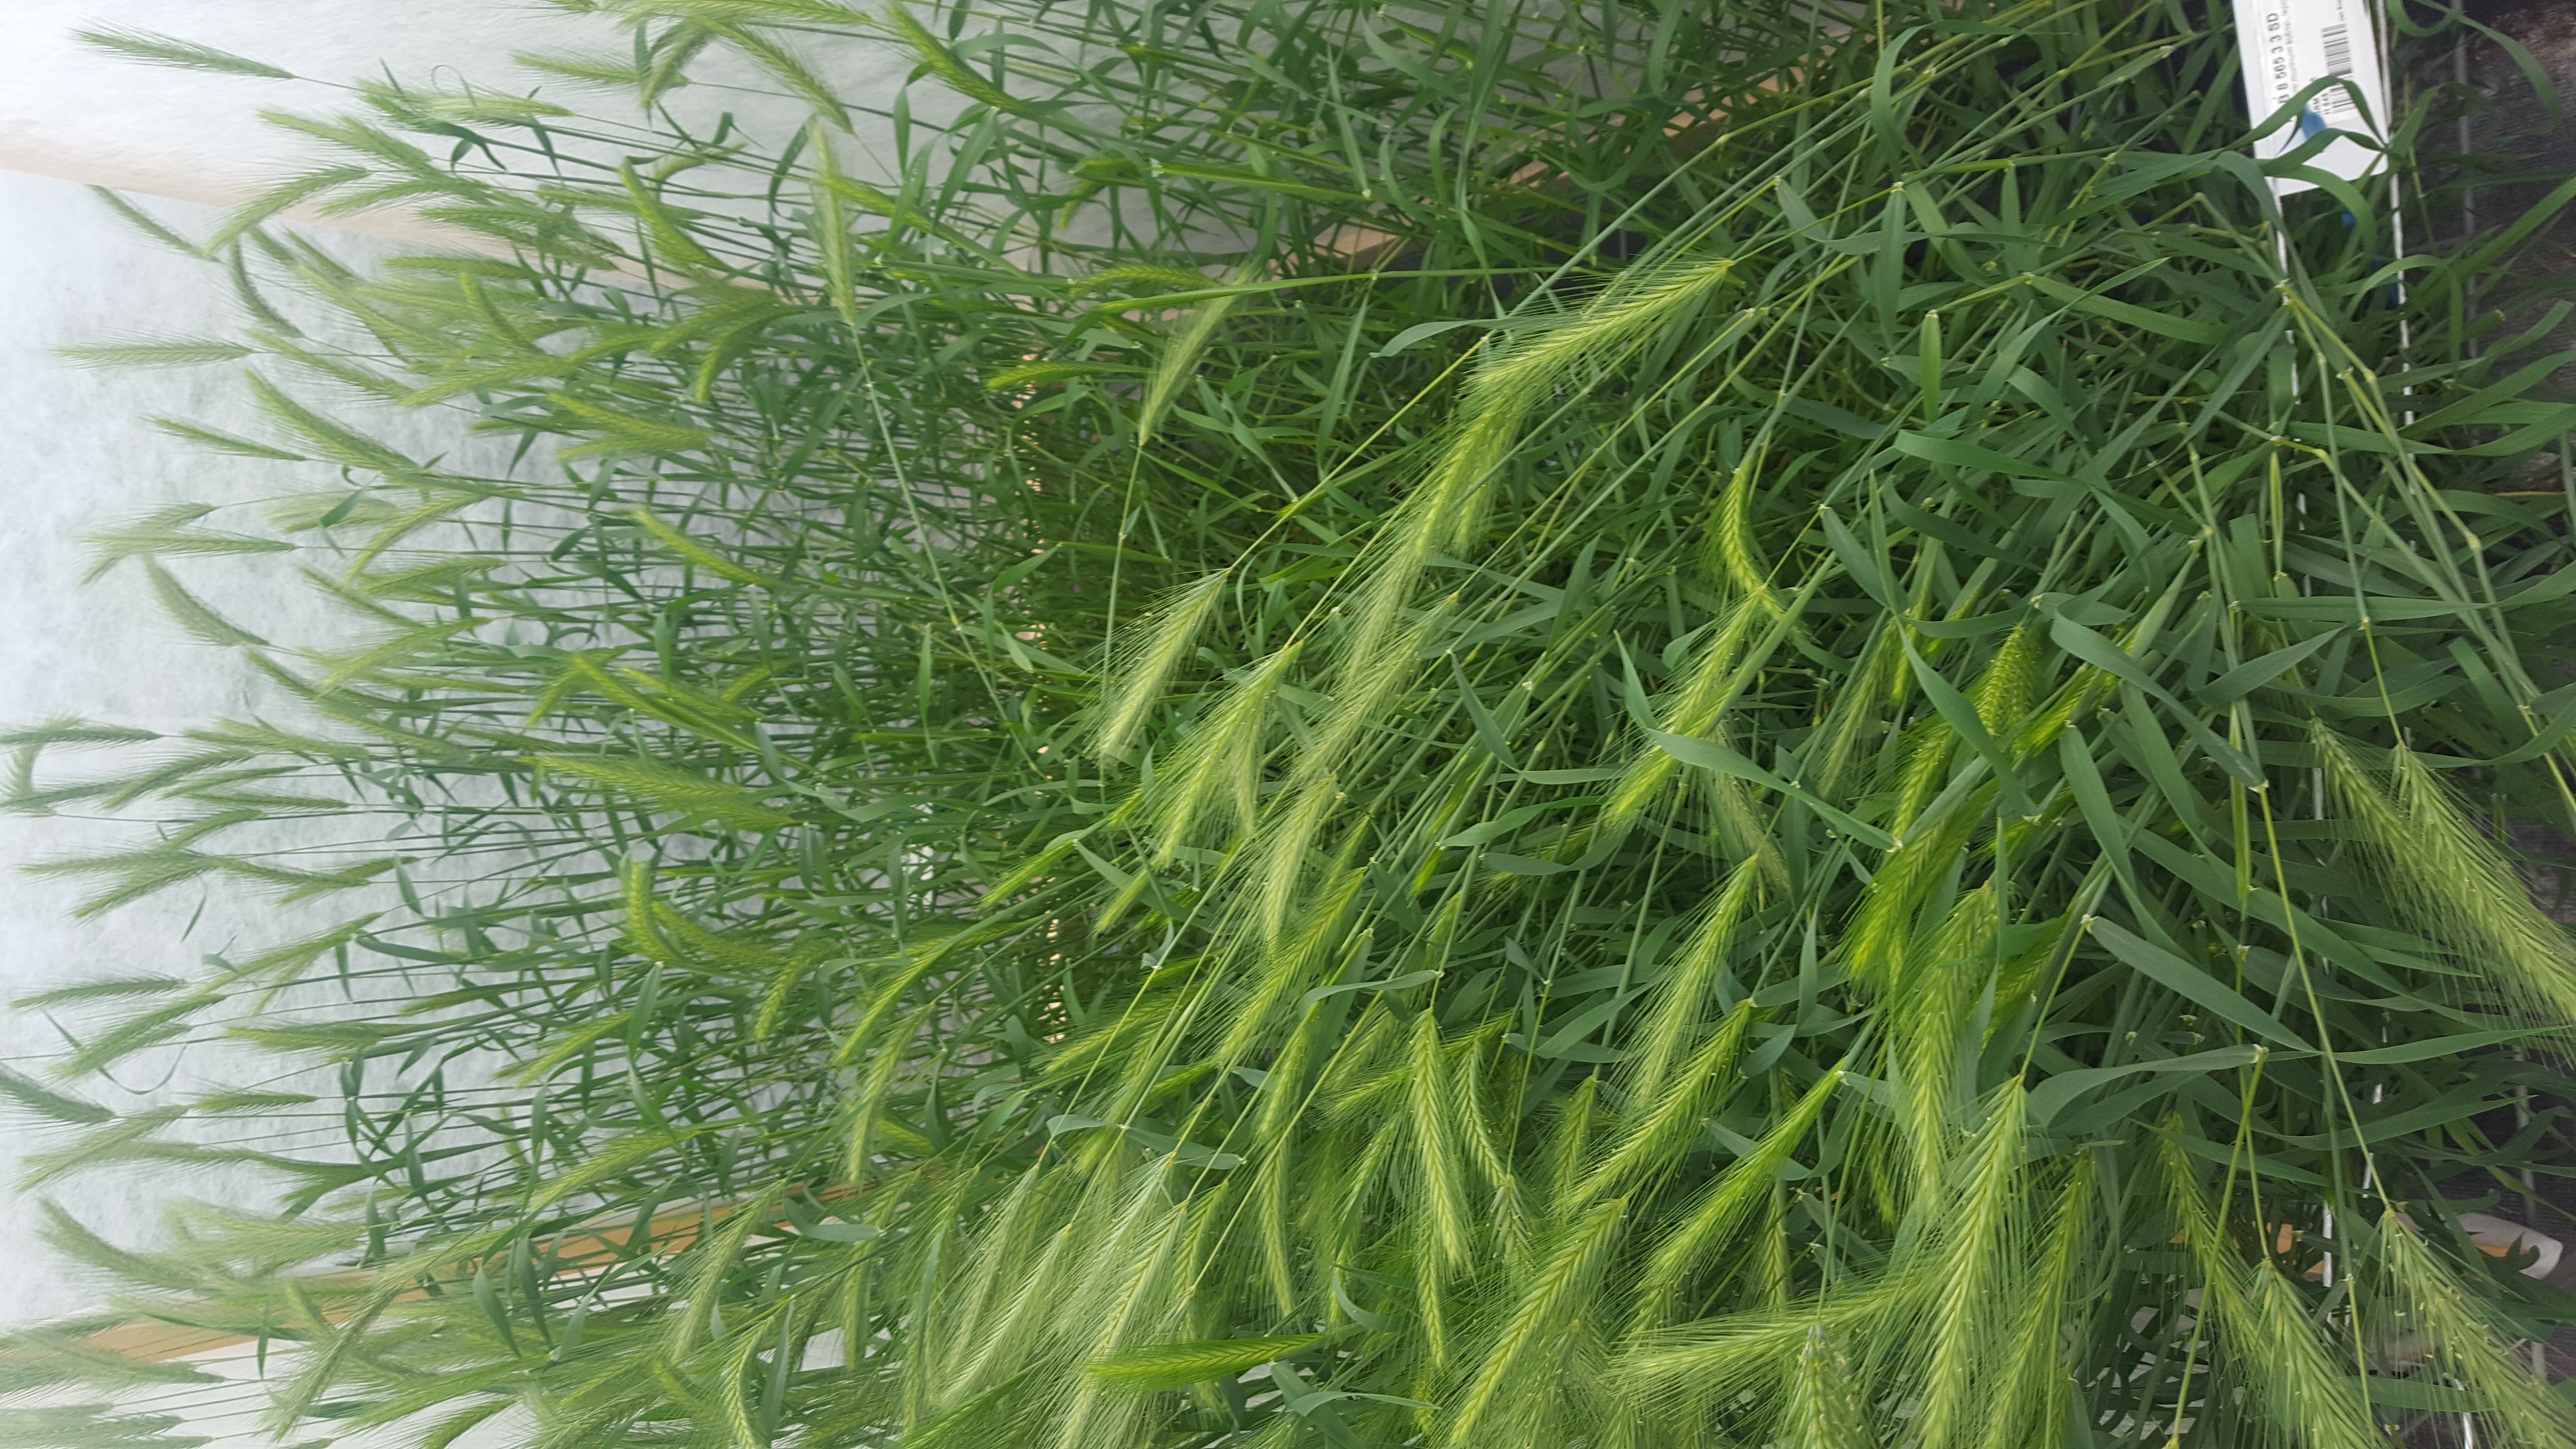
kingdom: Plantae
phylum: Tracheophyta
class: Liliopsida
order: Poales
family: Poaceae
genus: Hordeum
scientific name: Hordeum murinum
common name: Wall barley
